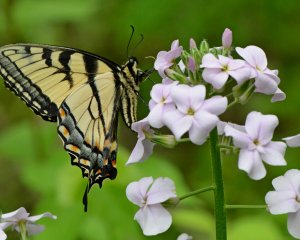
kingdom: Animalia
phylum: Arthropoda
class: Insecta
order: Lepidoptera
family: Papilionidae
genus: Pterourus
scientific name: Pterourus glaucus
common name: Eastern Tiger Swallowtail
